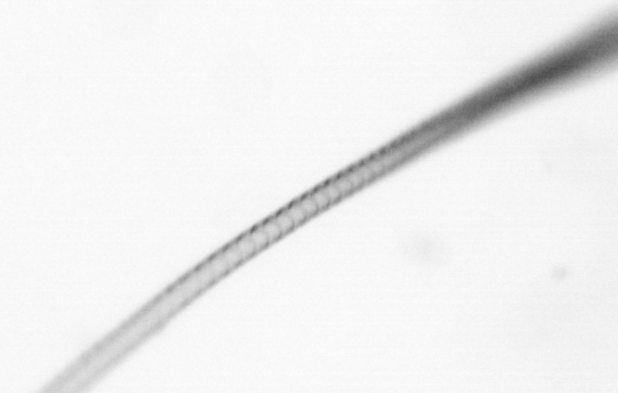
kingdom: Chromista
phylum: Ochrophyta
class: Bacillariophyceae
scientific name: Bacillariophyceae
